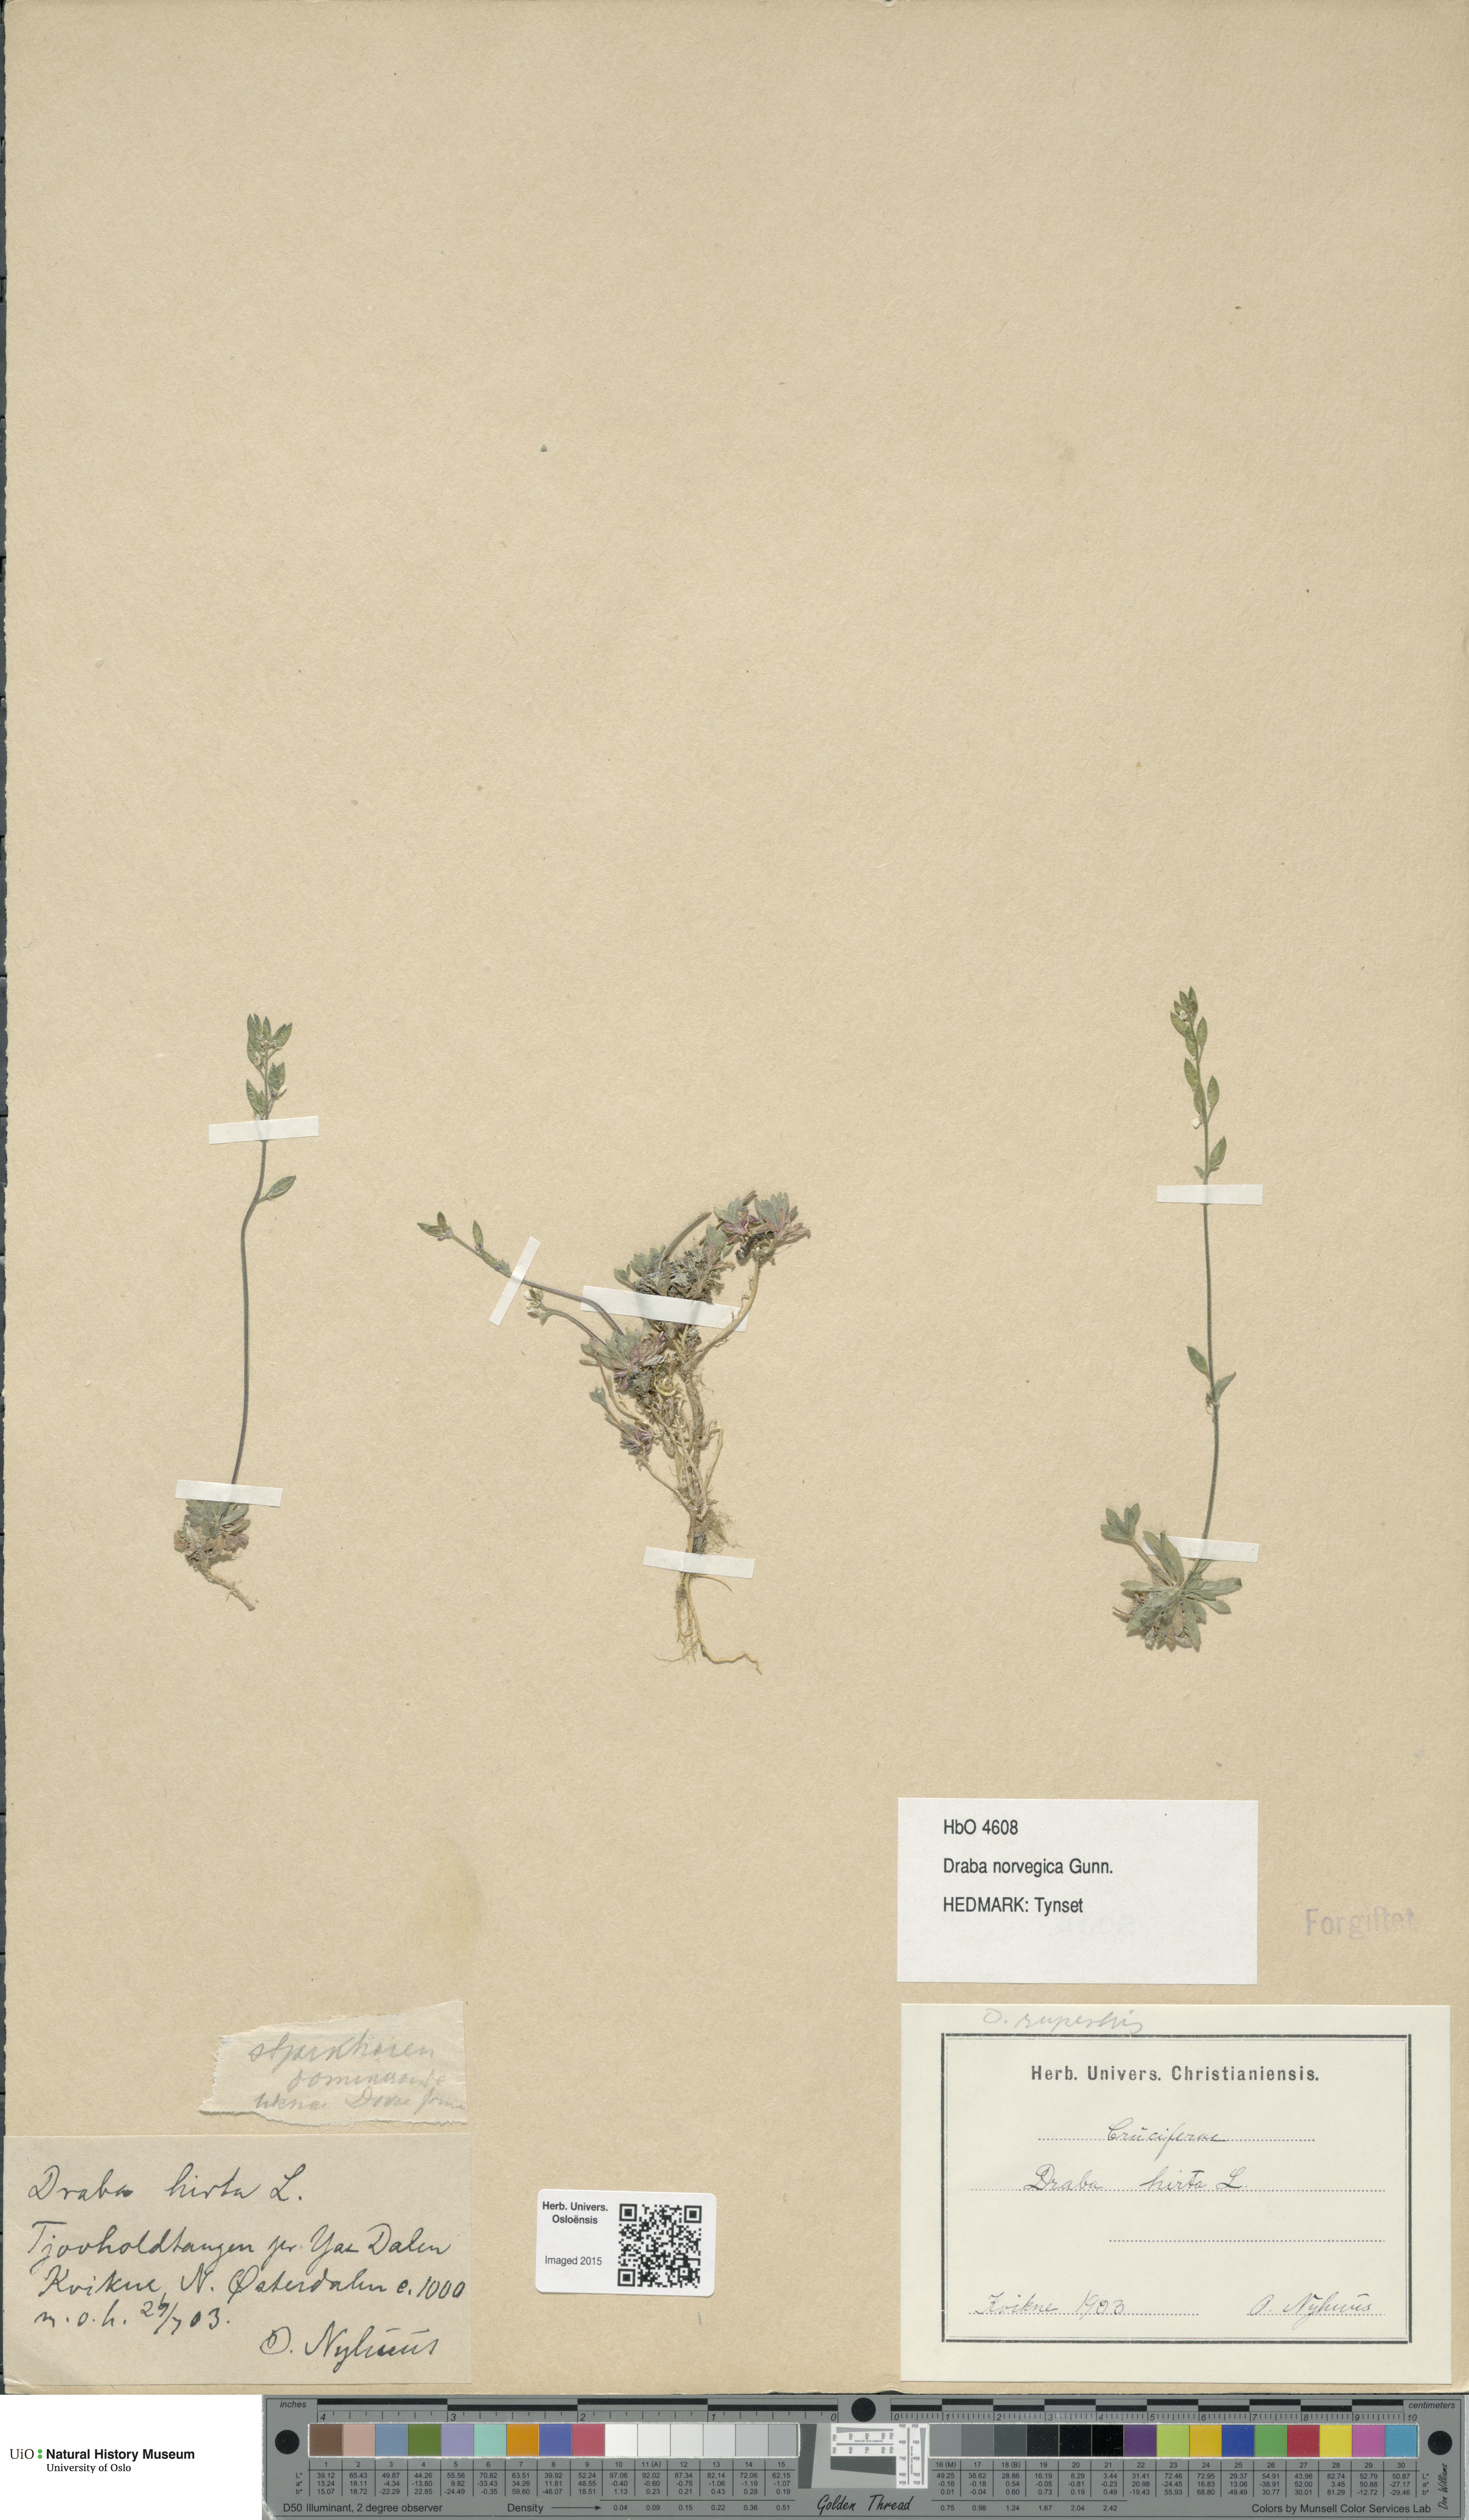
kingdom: Plantae
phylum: Tracheophyta
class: Magnoliopsida
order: Brassicales
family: Brassicaceae
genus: Draba
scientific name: Draba norvegica
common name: Rock whitlowgrass
